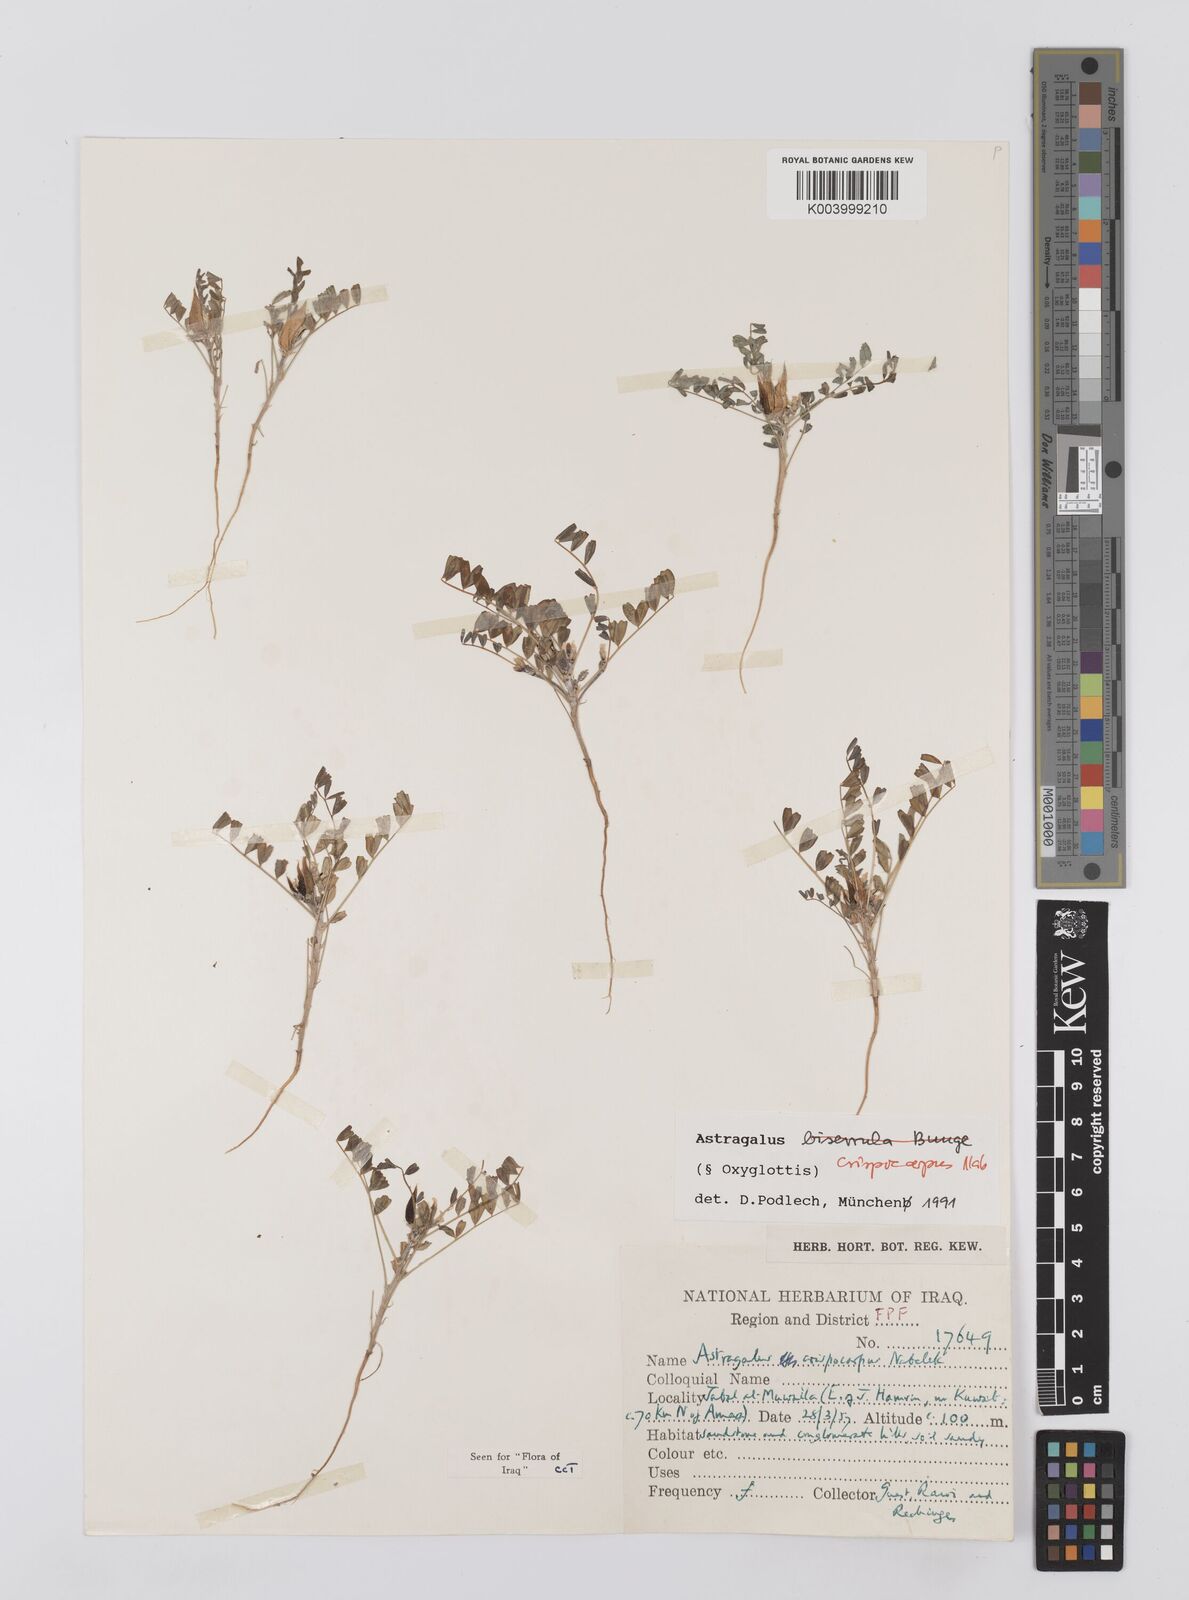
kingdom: Plantae
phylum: Tracheophyta
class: Magnoliopsida
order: Fabales
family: Fabaceae
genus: Astragalus
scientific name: Astragalus crispocarpus
